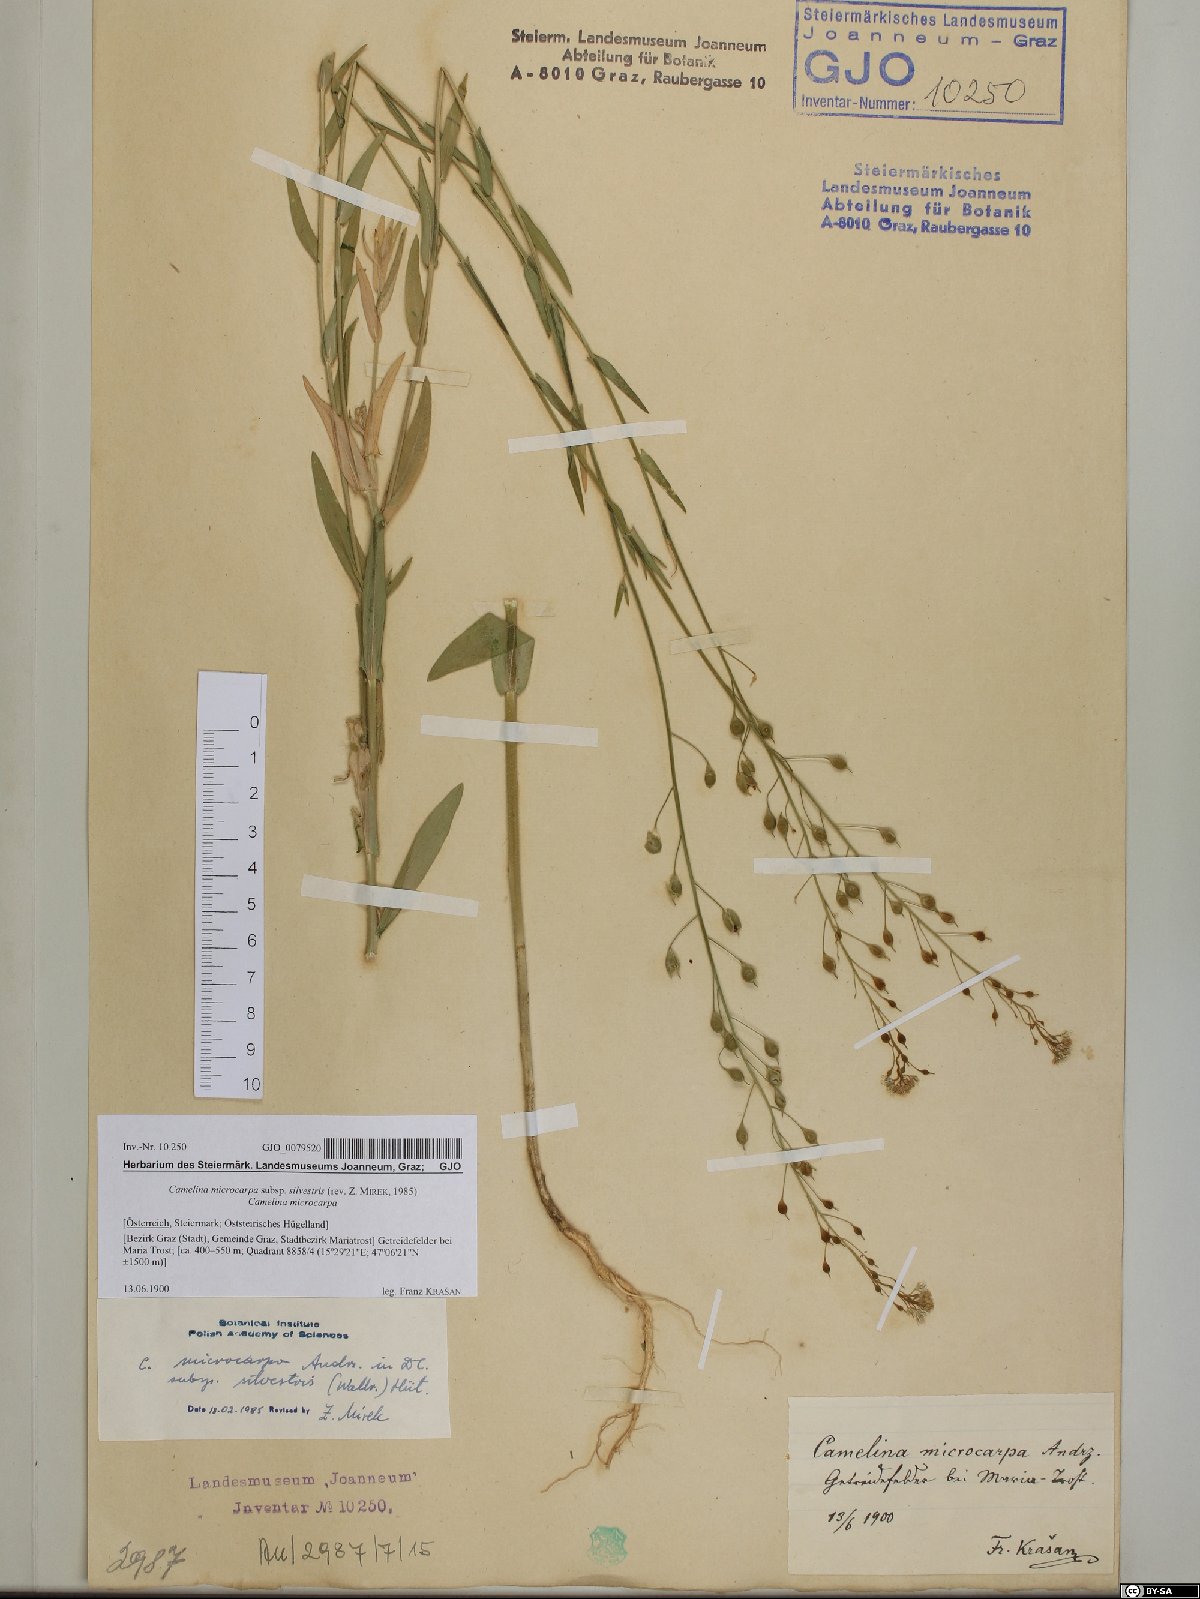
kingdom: Plantae
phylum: Tracheophyta
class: Magnoliopsida
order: Brassicales
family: Brassicaceae
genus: Camelina
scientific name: Camelina microcarpa
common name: Lesser gold-of-pleasure
